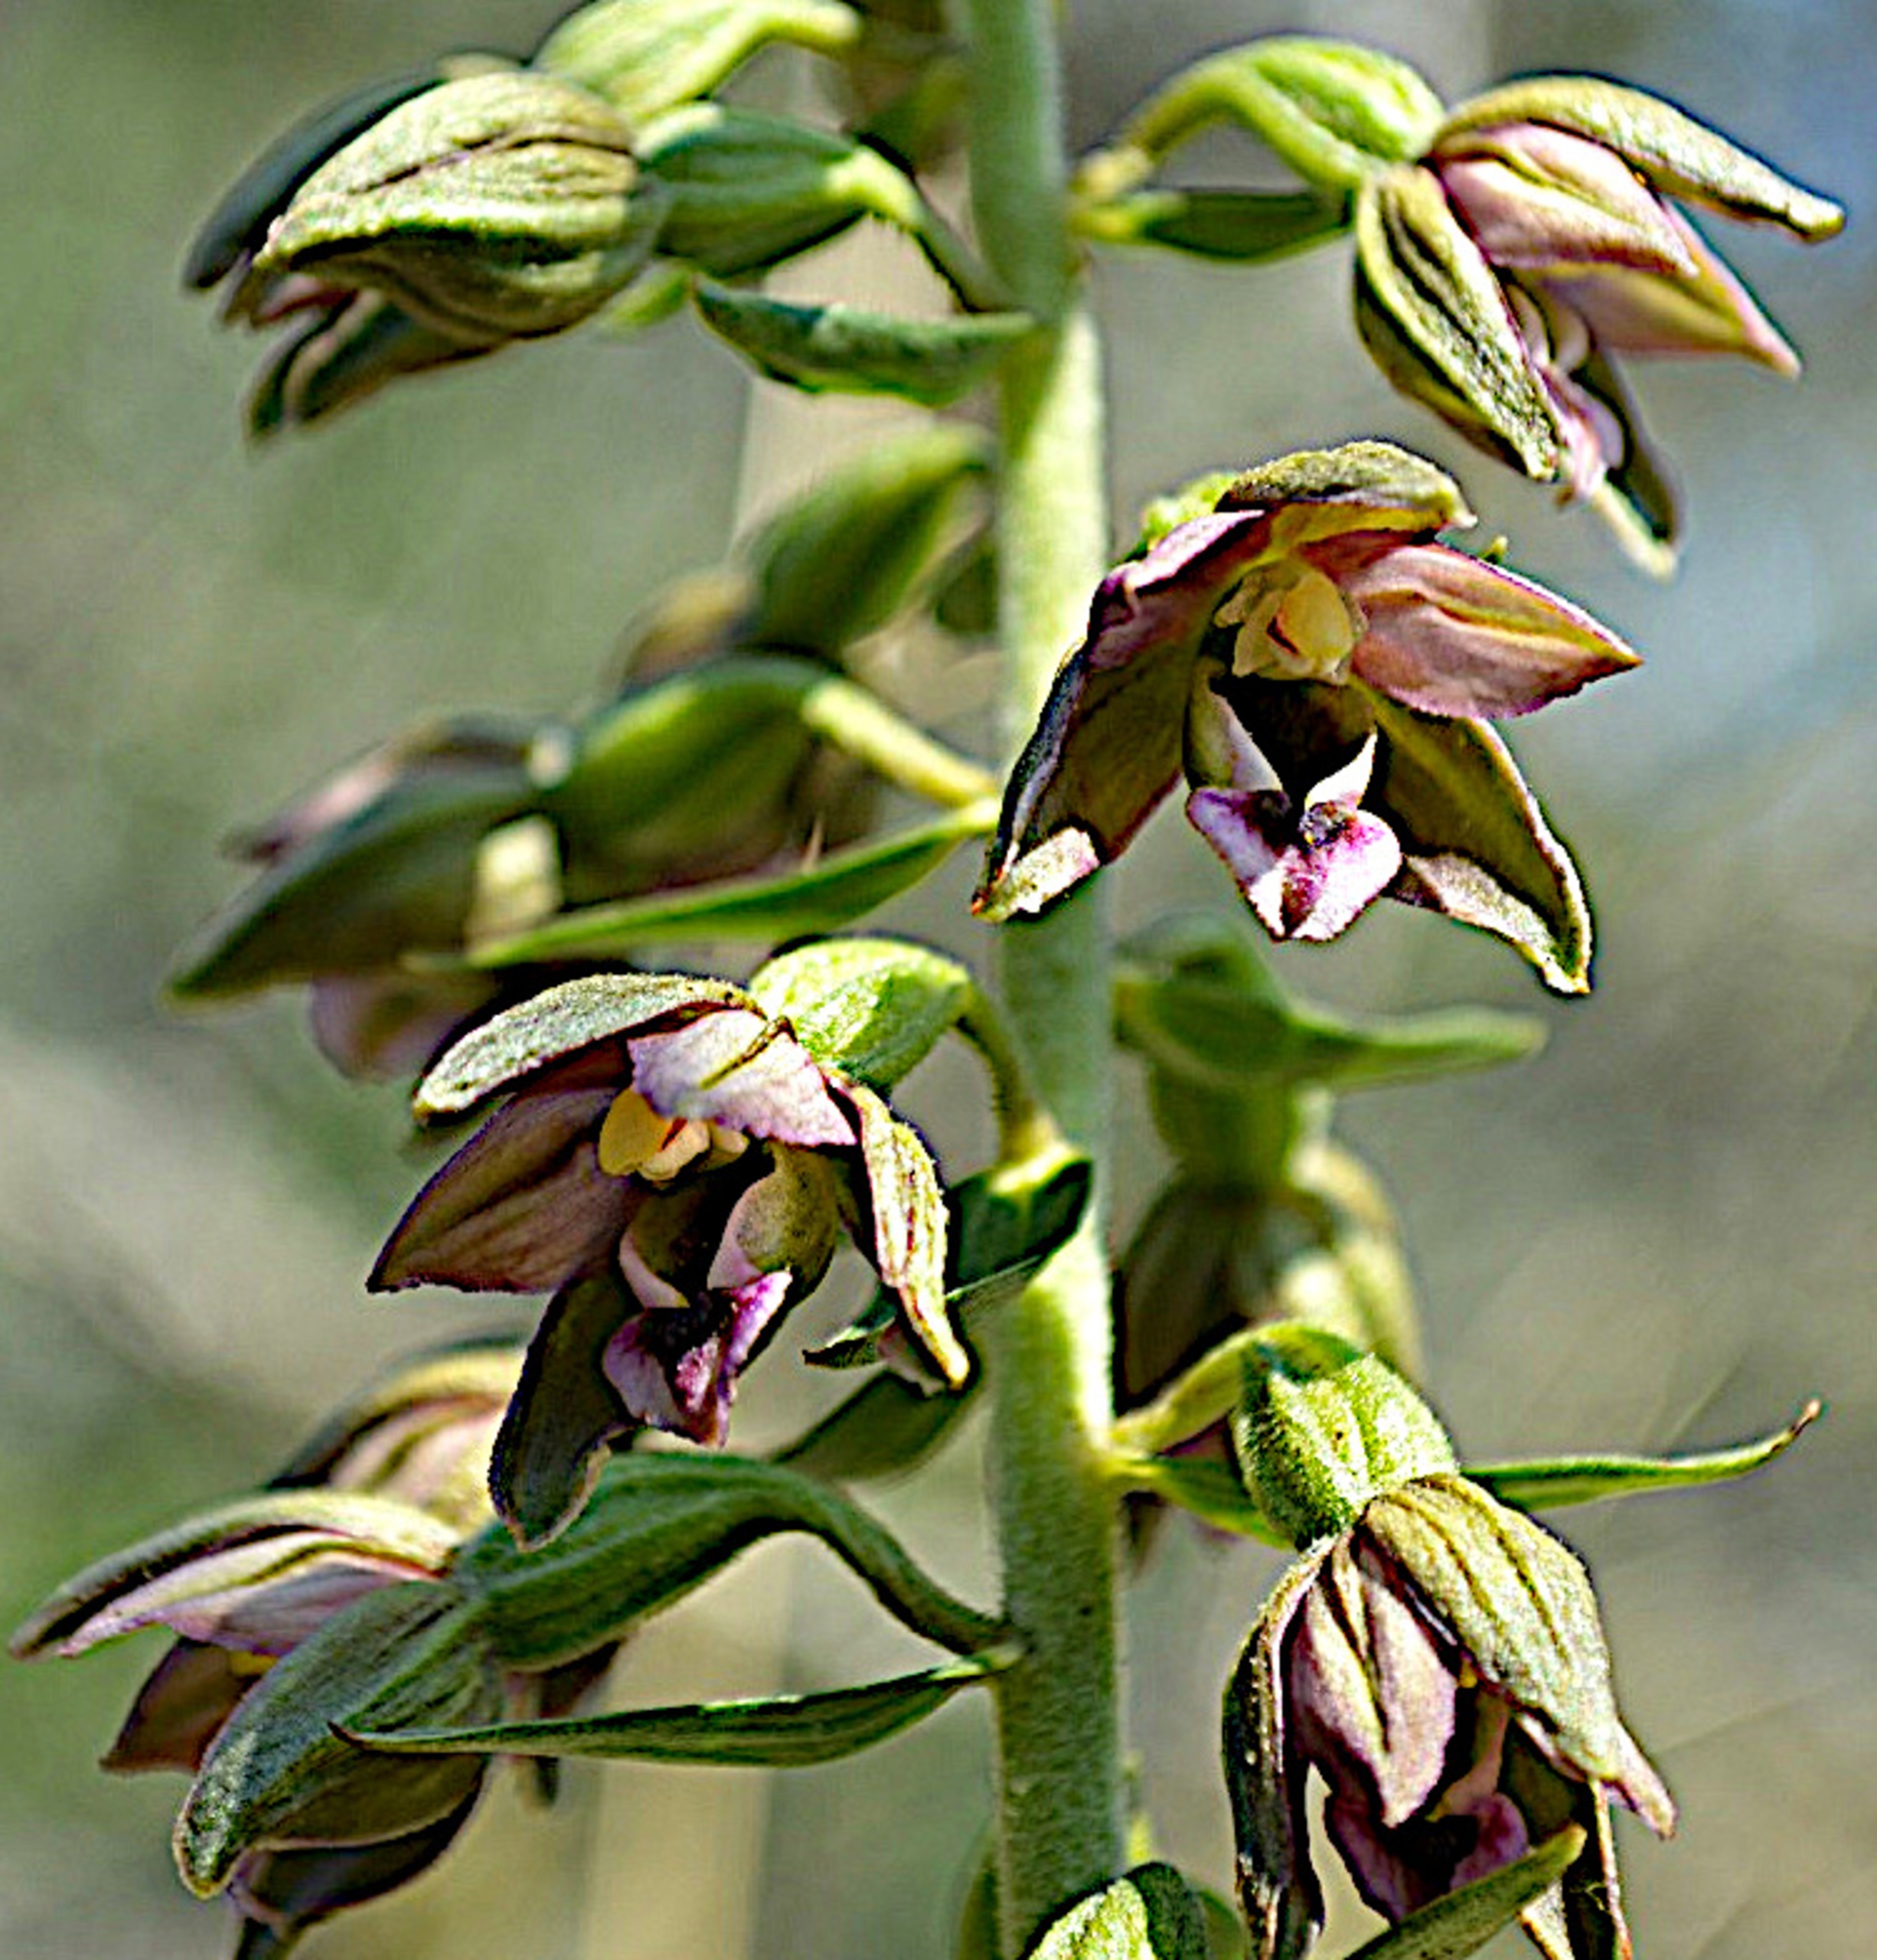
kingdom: Plantae
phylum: Tracheophyta
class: Liliopsida
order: Asparagales
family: Orchidaceae
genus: Epipactis
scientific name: Epipactis helleborine
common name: Skagen-hullæbe
